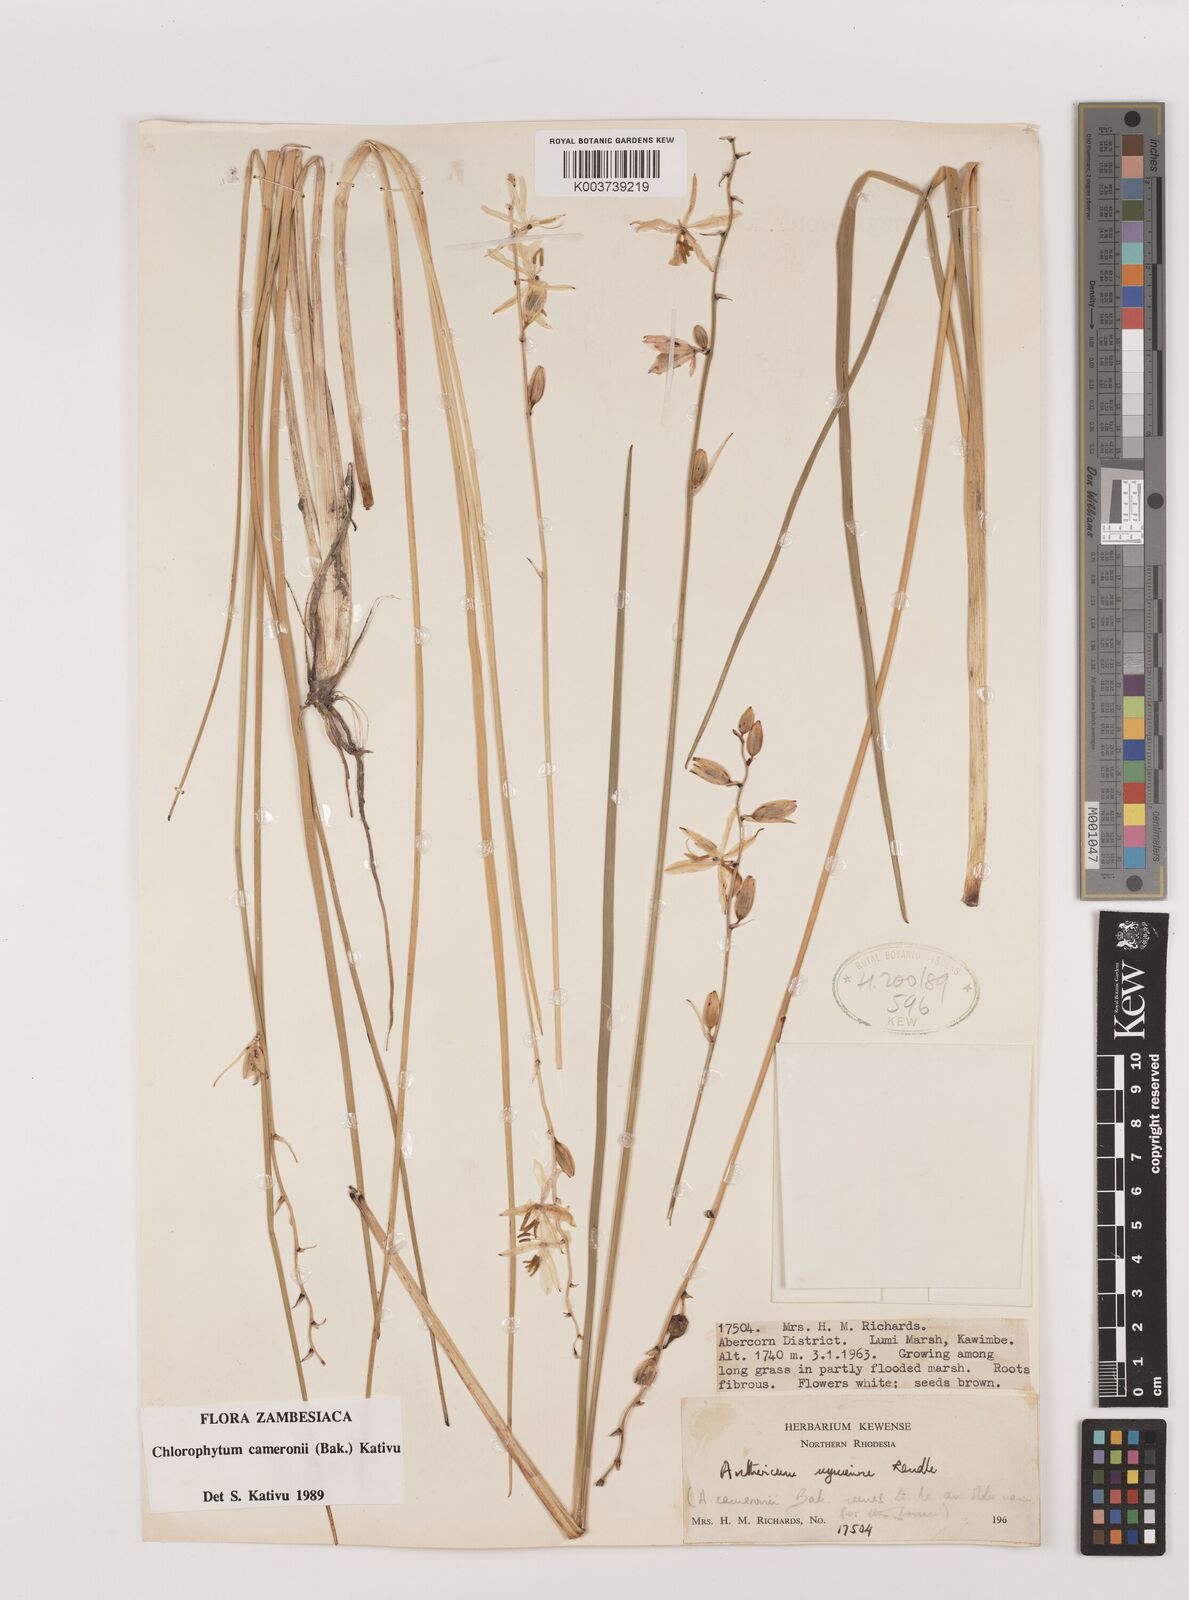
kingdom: Plantae
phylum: Tracheophyta
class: Liliopsida
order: Asparagales
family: Asparagaceae
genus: Chlorophytum
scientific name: Chlorophytum cameronii
